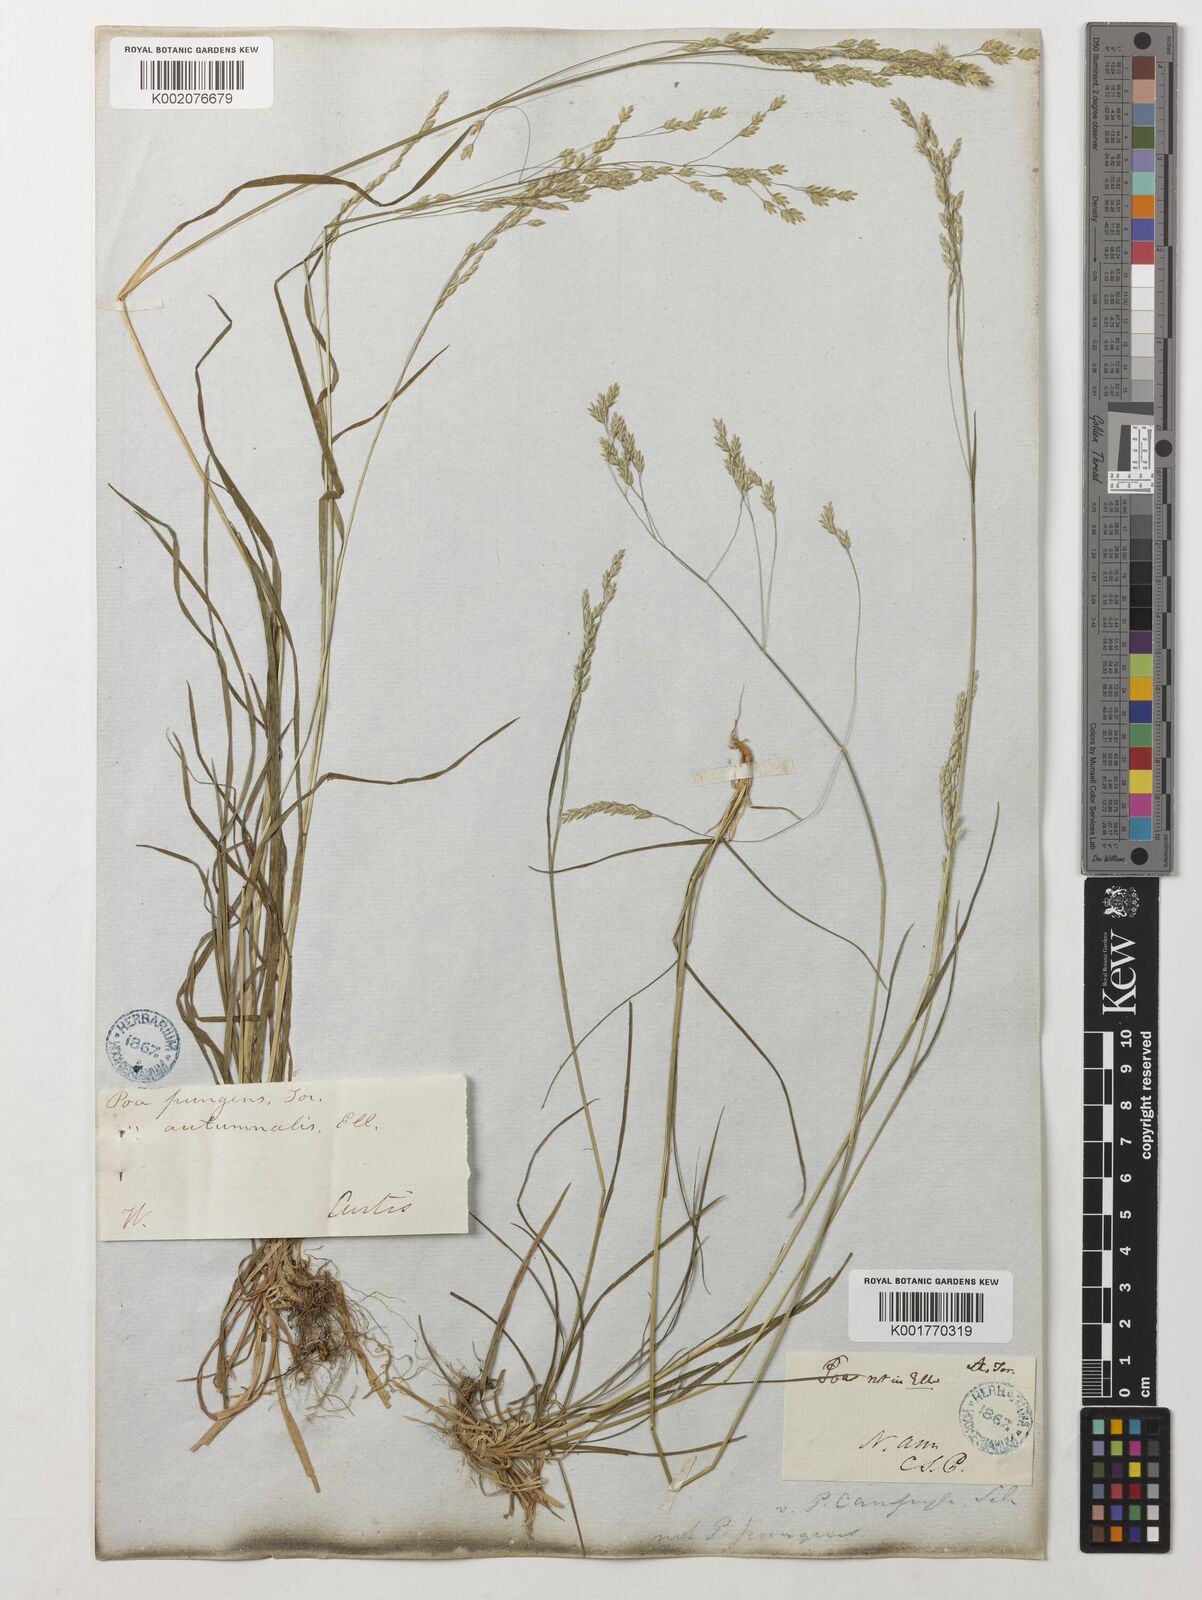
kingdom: Plantae
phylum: Tracheophyta
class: Liliopsida
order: Poales
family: Poaceae
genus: Poa
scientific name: Poa cuspidata
